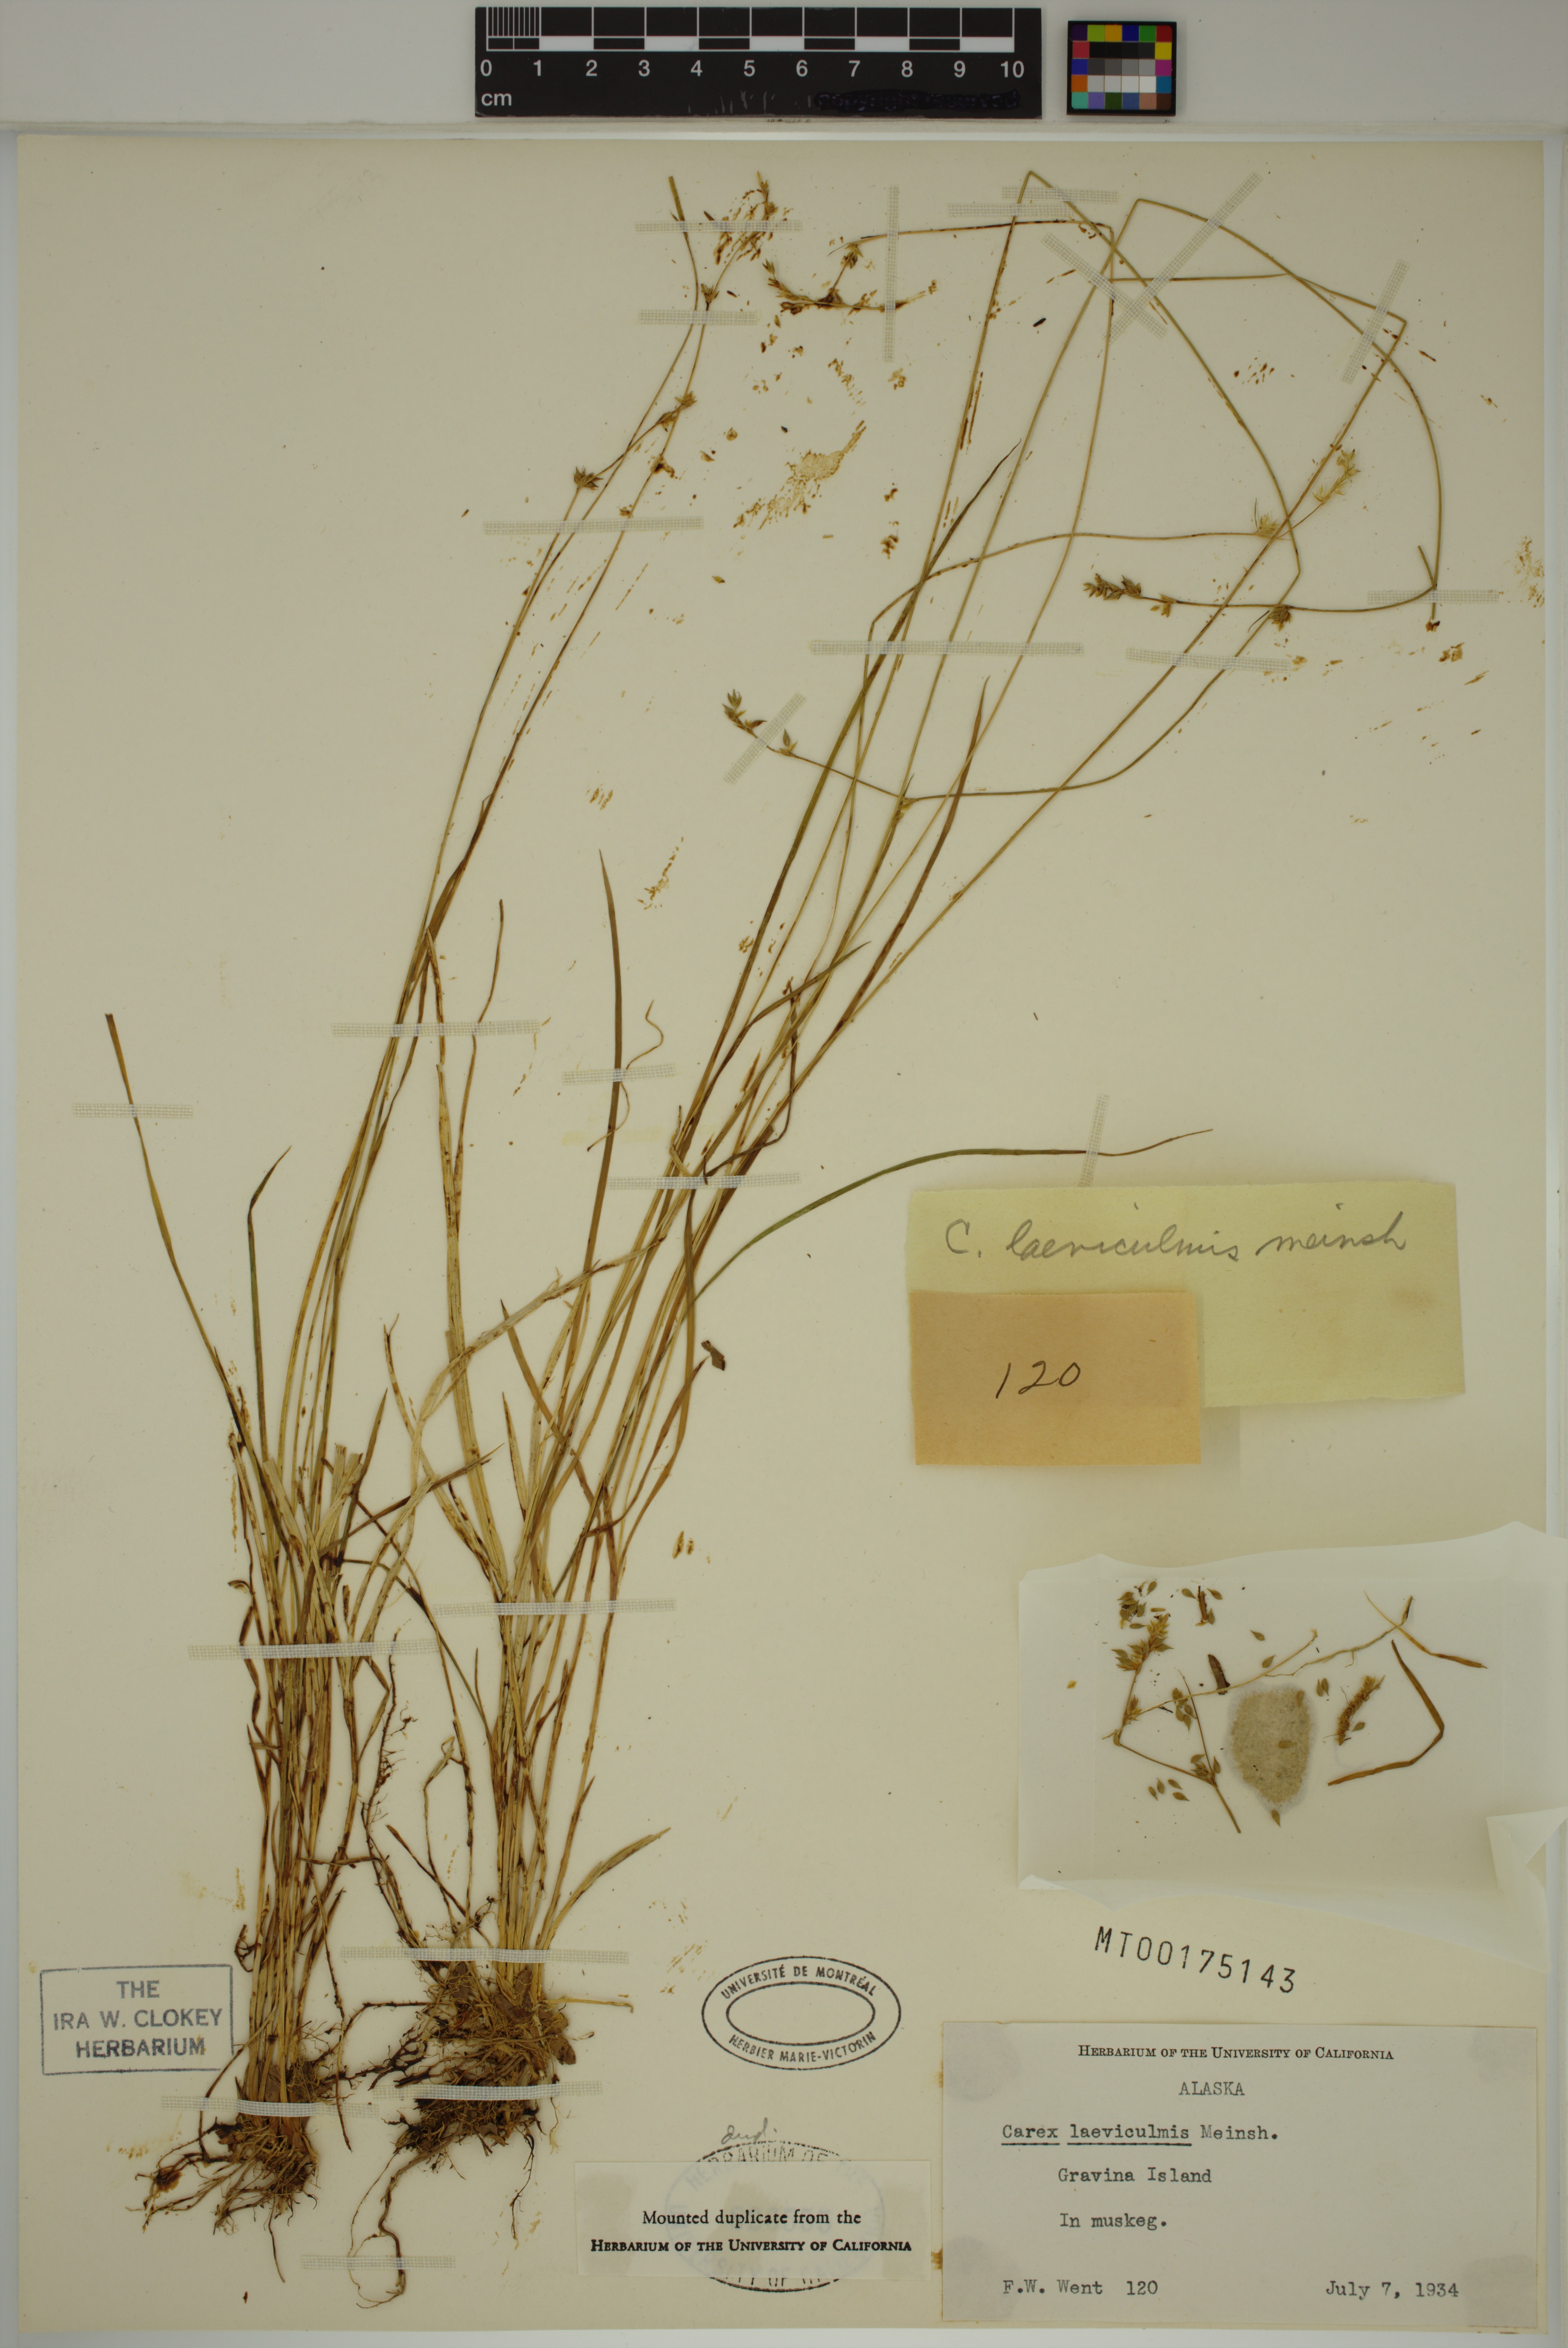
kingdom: Plantae
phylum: Tracheophyta
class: Liliopsida
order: Poales
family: Cyperaceae
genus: Carex
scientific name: Carex laeviculmis
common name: Smooth sedge
